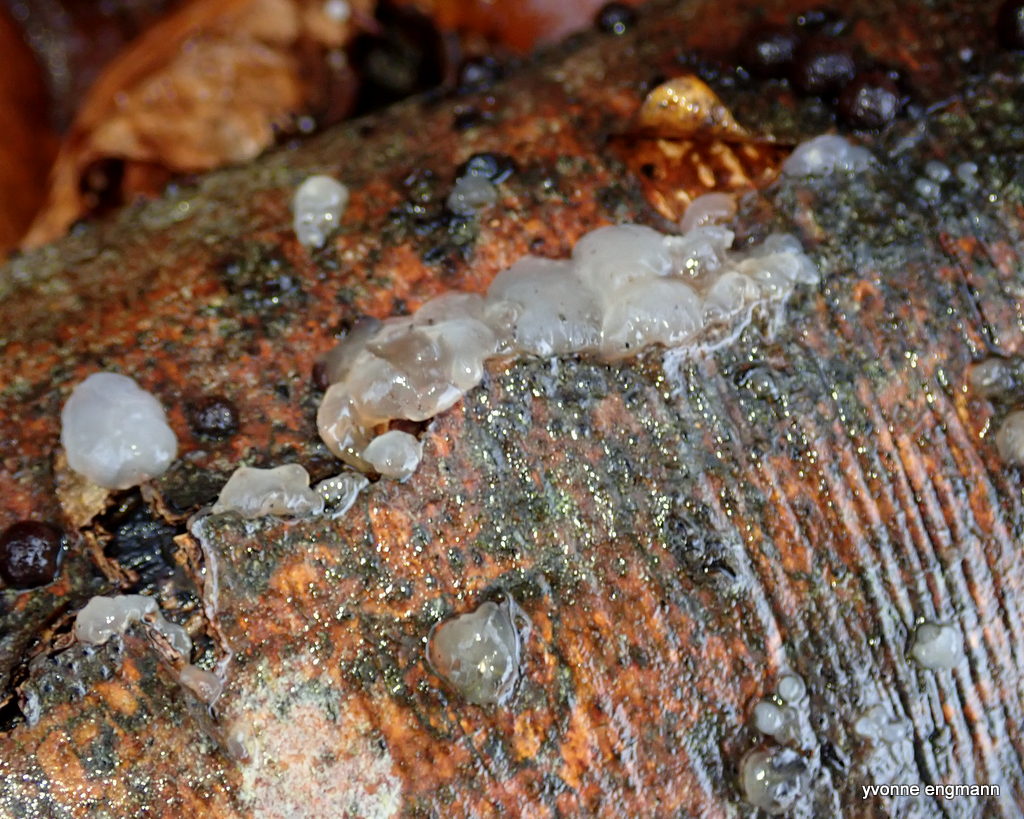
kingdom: Fungi
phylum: Basidiomycota
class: Agaricomycetes
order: Auriculariales
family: Hyaloriaceae
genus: Myxarium
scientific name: Myxarium nucleatum
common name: klar bævretop
